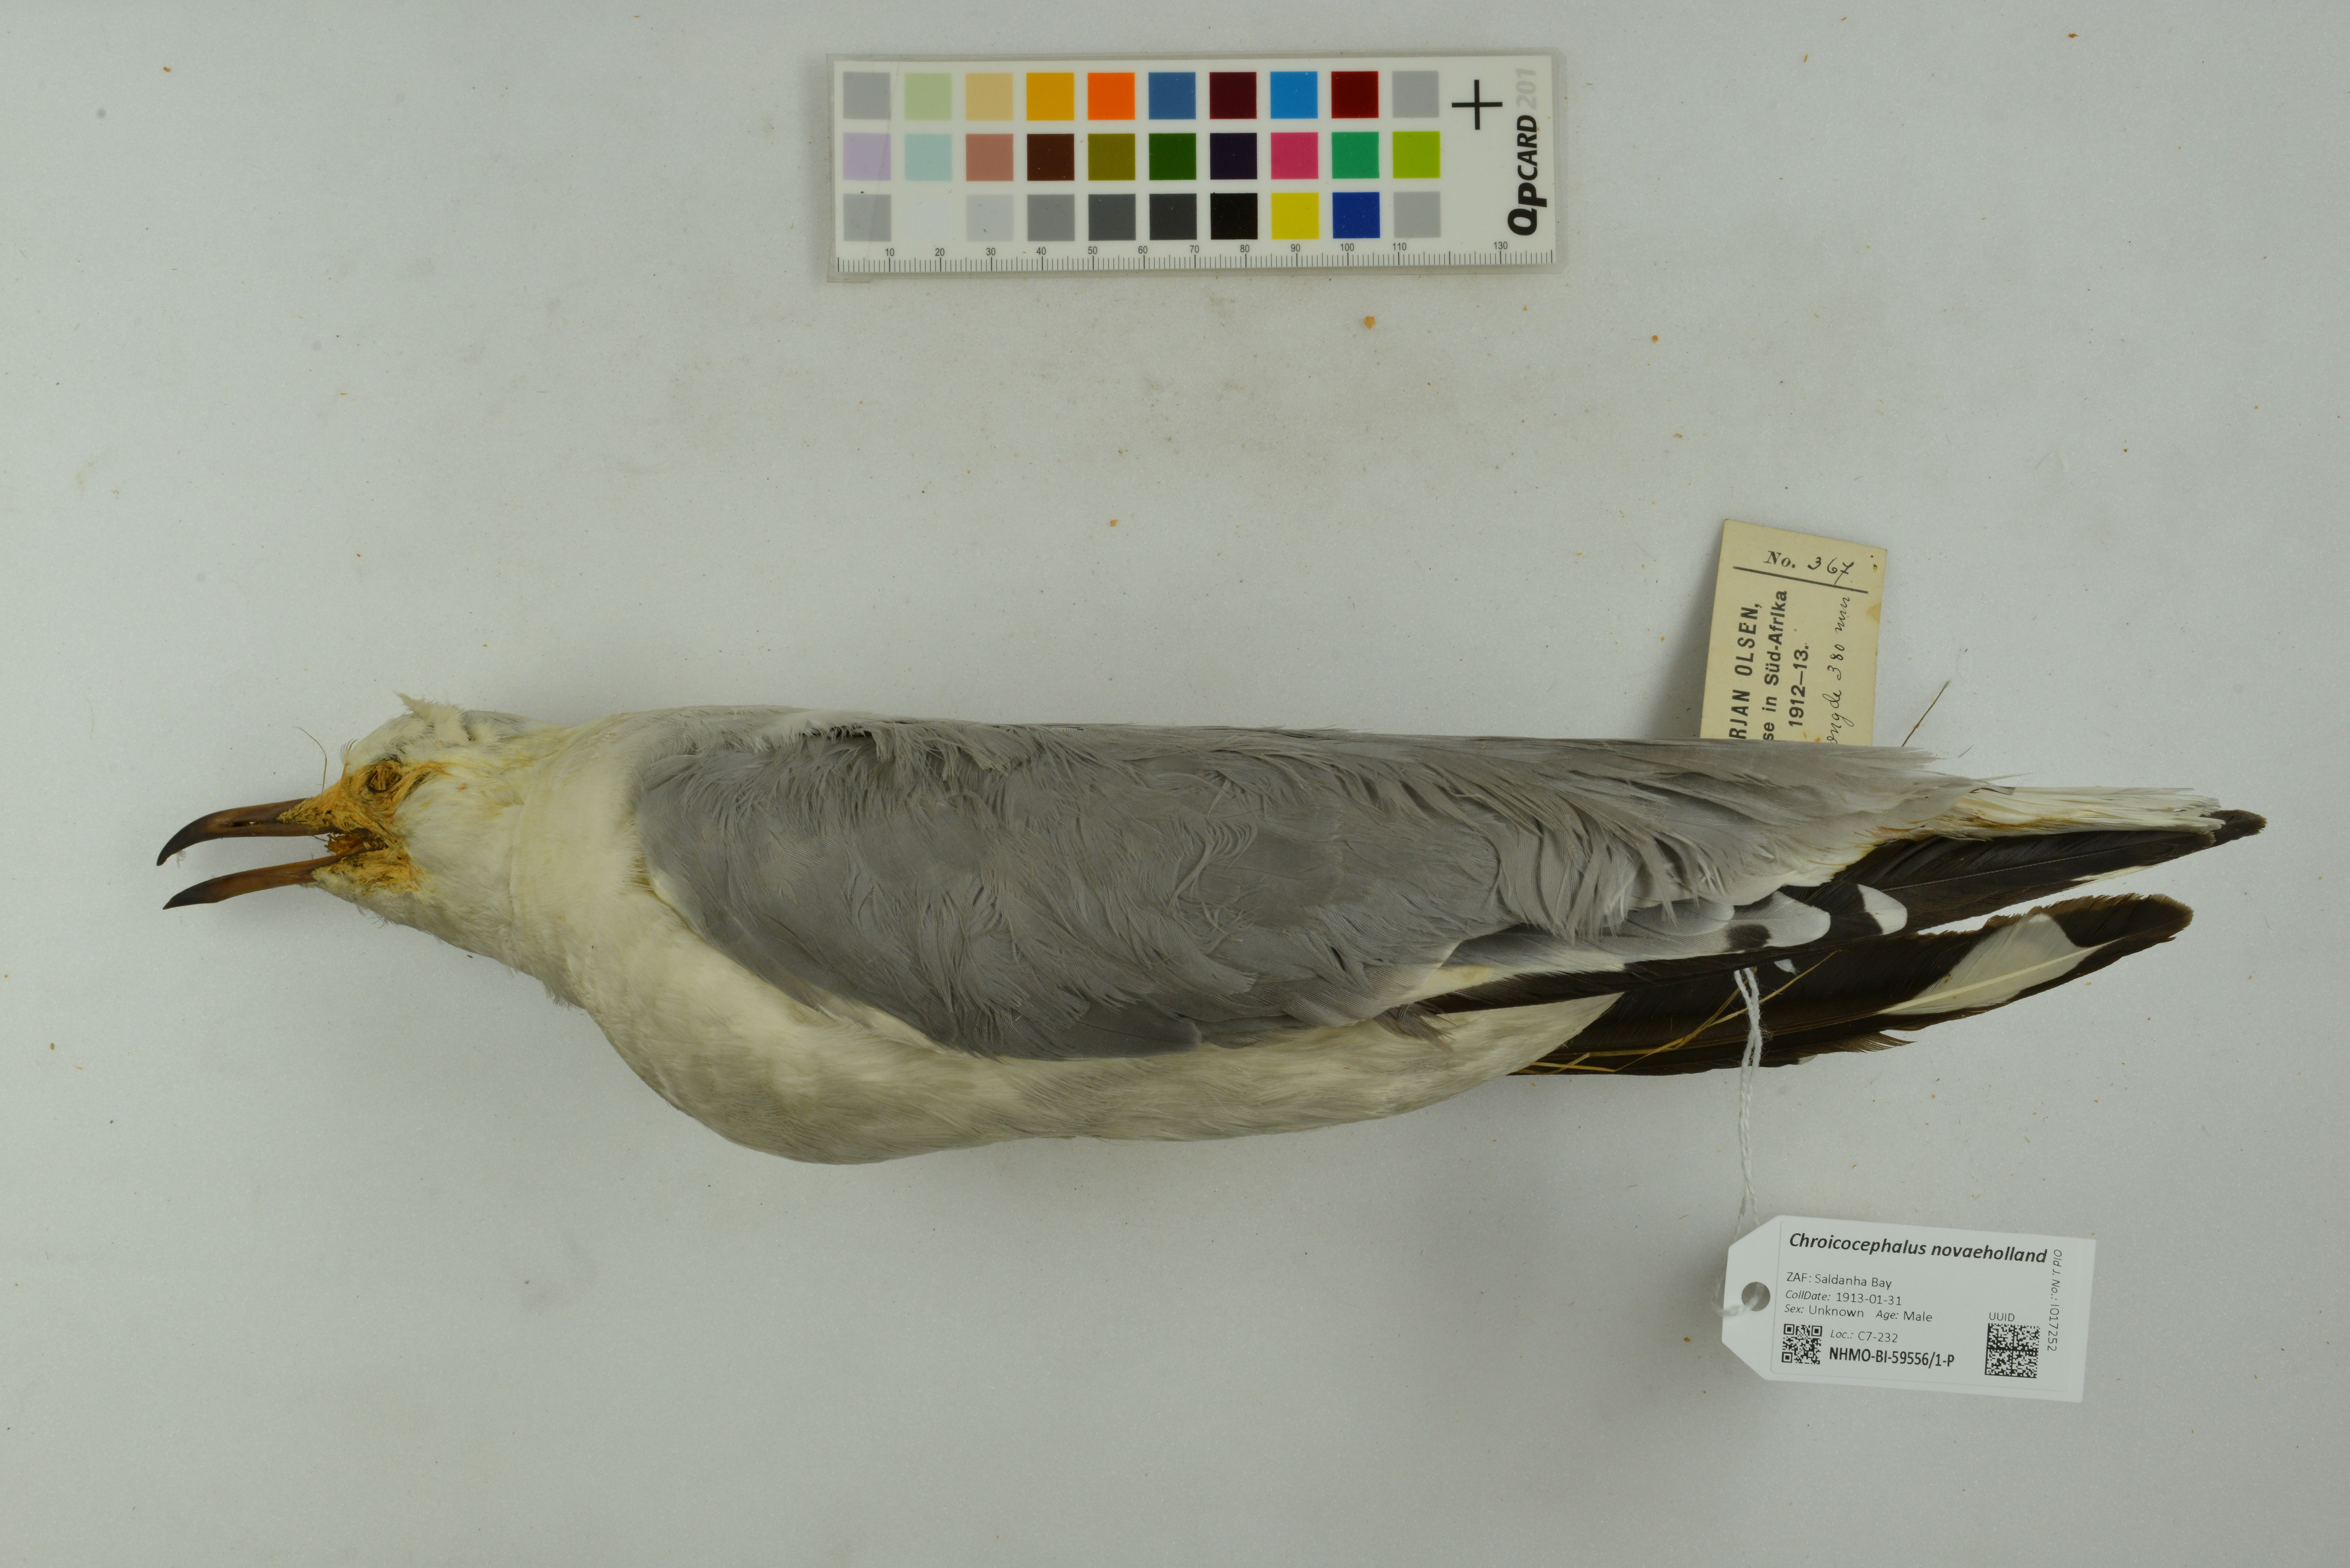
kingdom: Animalia
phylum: Chordata
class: Aves
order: Charadriiformes
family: Laridae
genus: Chroicocephalus
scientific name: Chroicocephalus novaehollandiae
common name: Silver gull
